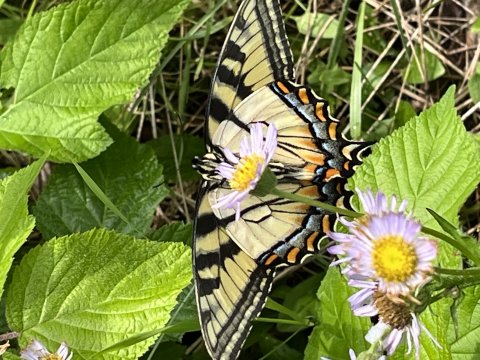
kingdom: Animalia
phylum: Arthropoda
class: Insecta
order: Lepidoptera
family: Papilionidae
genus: Pterourus
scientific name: Pterourus canadensis
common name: Canadian Tiger Swallowtail
